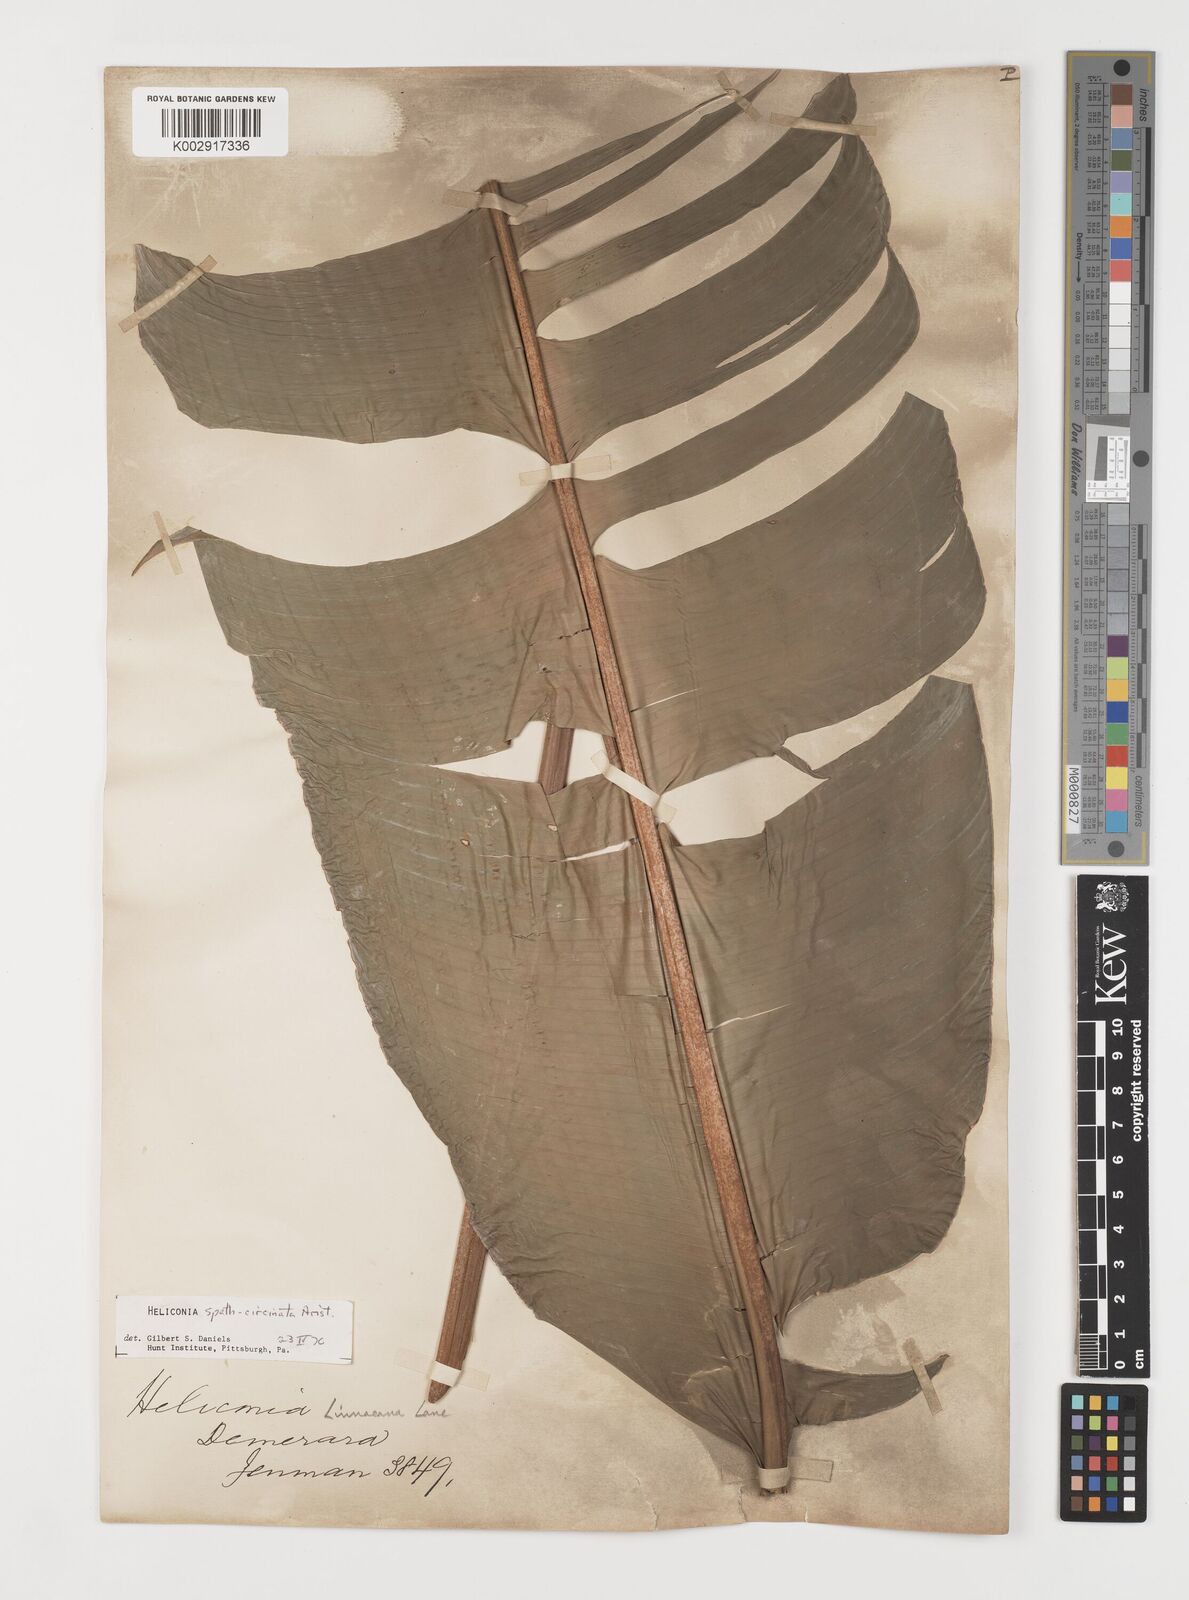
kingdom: Plantae
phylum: Tracheophyta
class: Liliopsida
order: Zingiberales
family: Heliconiaceae
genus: Heliconia
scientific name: Heliconia spathocircinata
